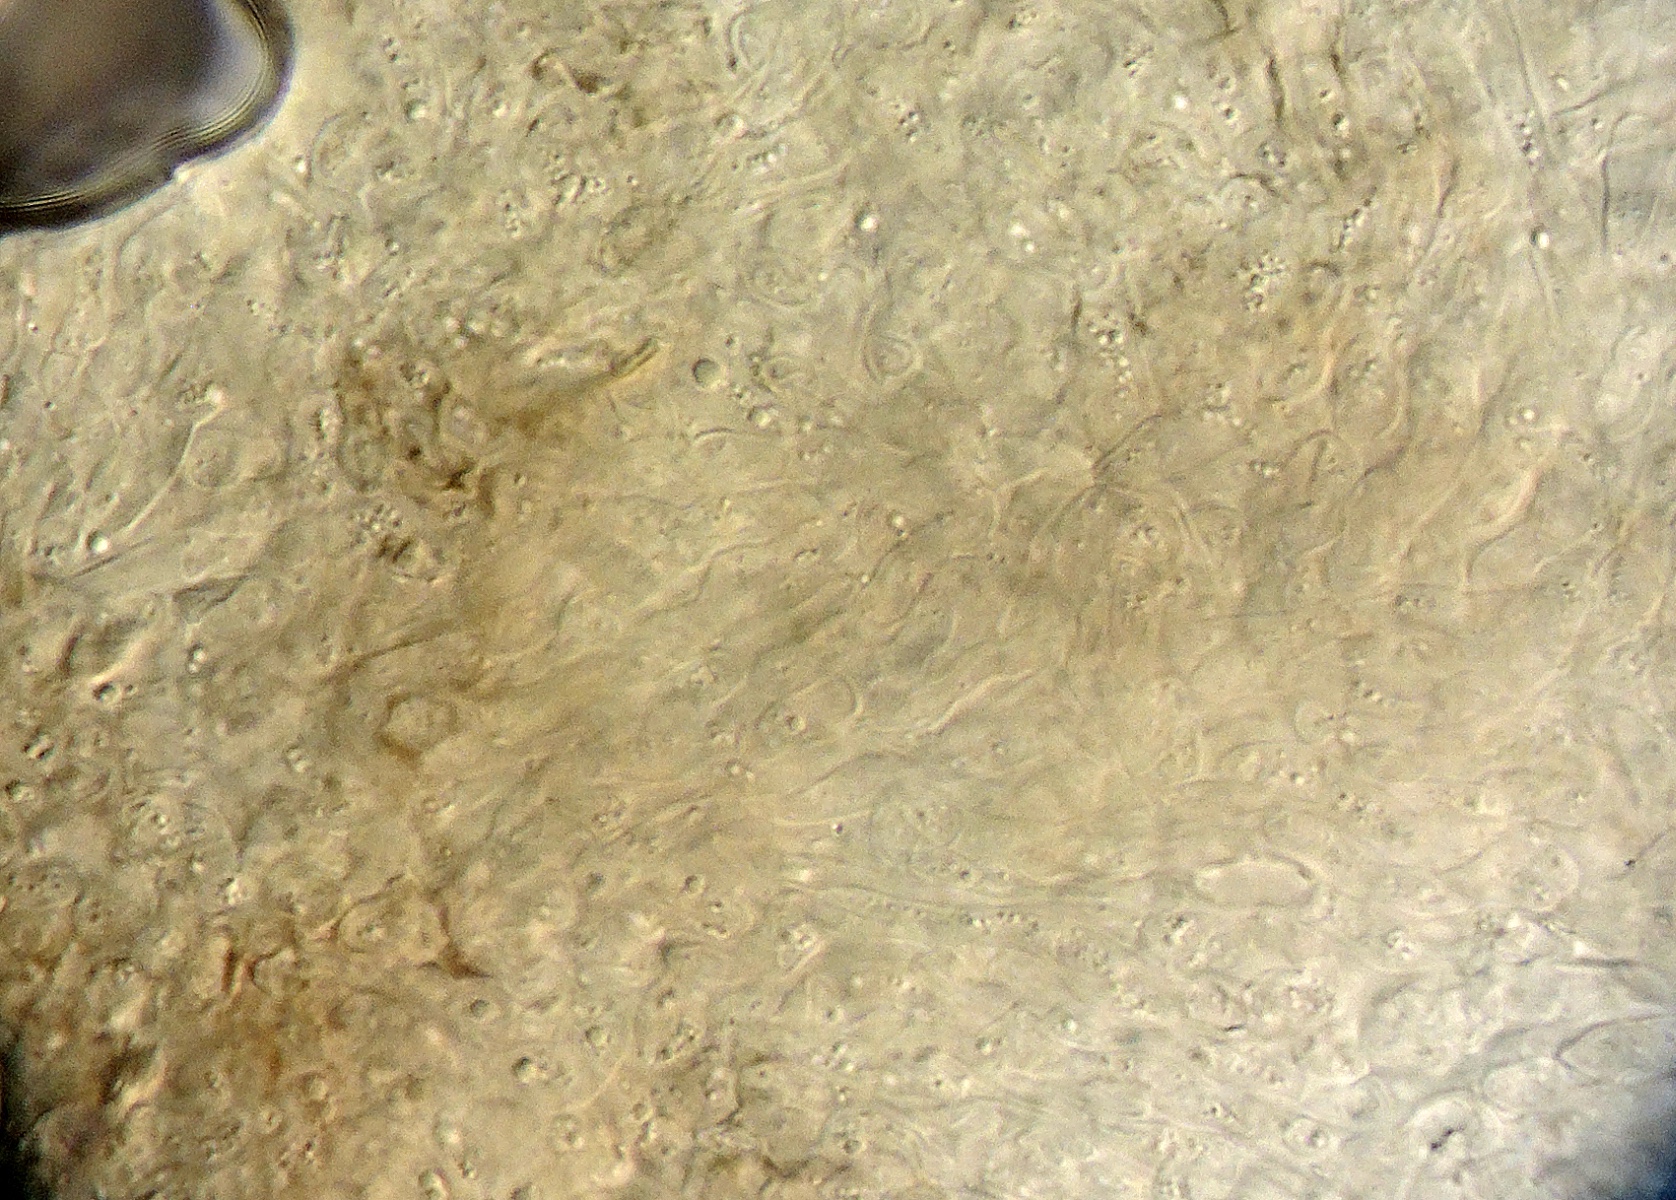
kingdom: Fungi
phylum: Ascomycota
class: Leotiomycetes
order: Helotiales
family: Dermateaceae
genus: Hysterostegiella
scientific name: Hysterostegiella valvata
